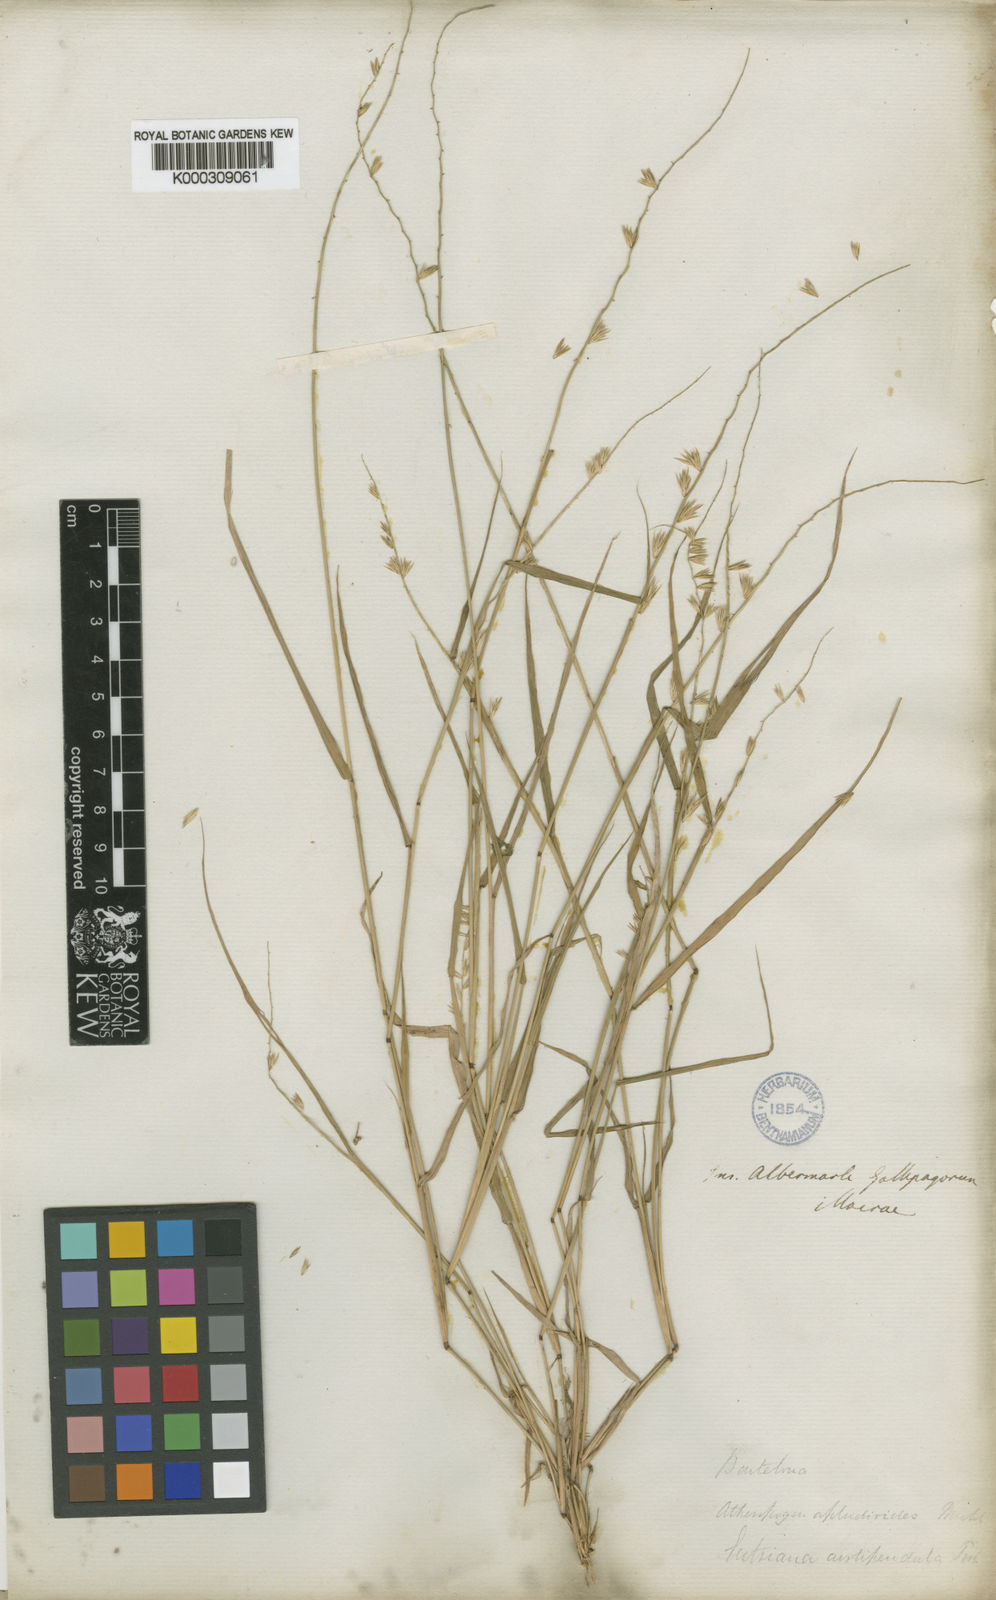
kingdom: Plantae
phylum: Tracheophyta
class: Liliopsida
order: Poales
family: Poaceae
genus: Bouteloua
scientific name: Bouteloua disticha
